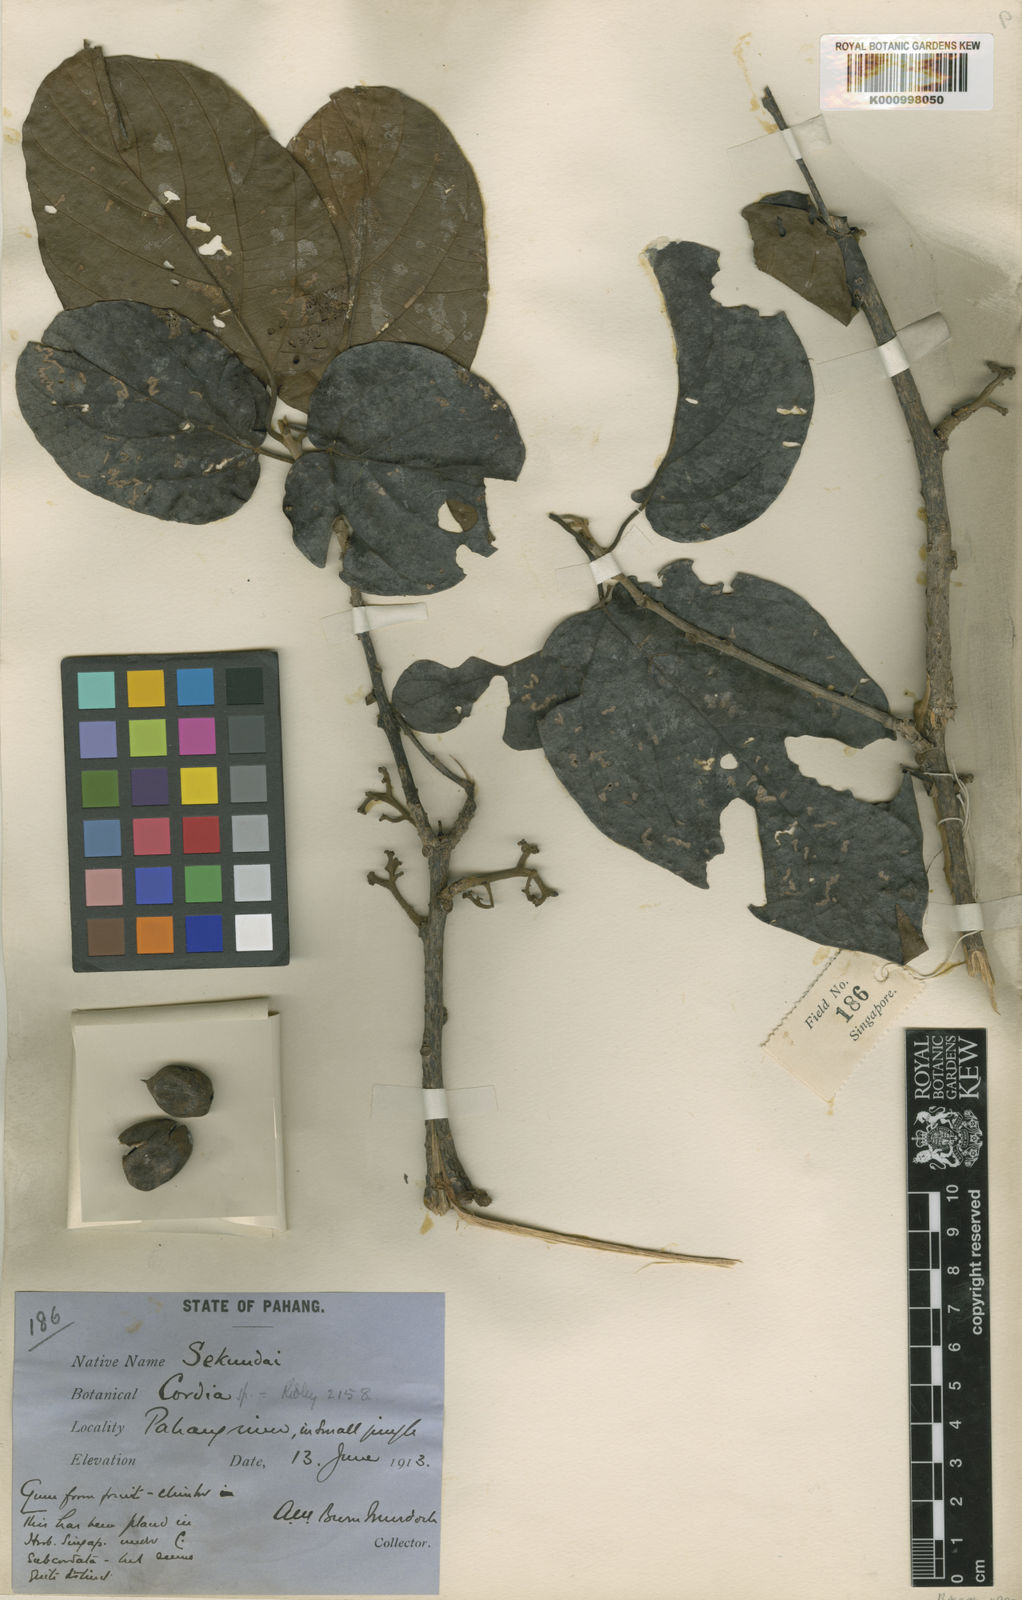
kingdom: Plantae
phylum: Tracheophyta
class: Magnoliopsida
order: Boraginales
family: Cordiaceae
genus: Cordia
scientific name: Cordia cochinchinensis
